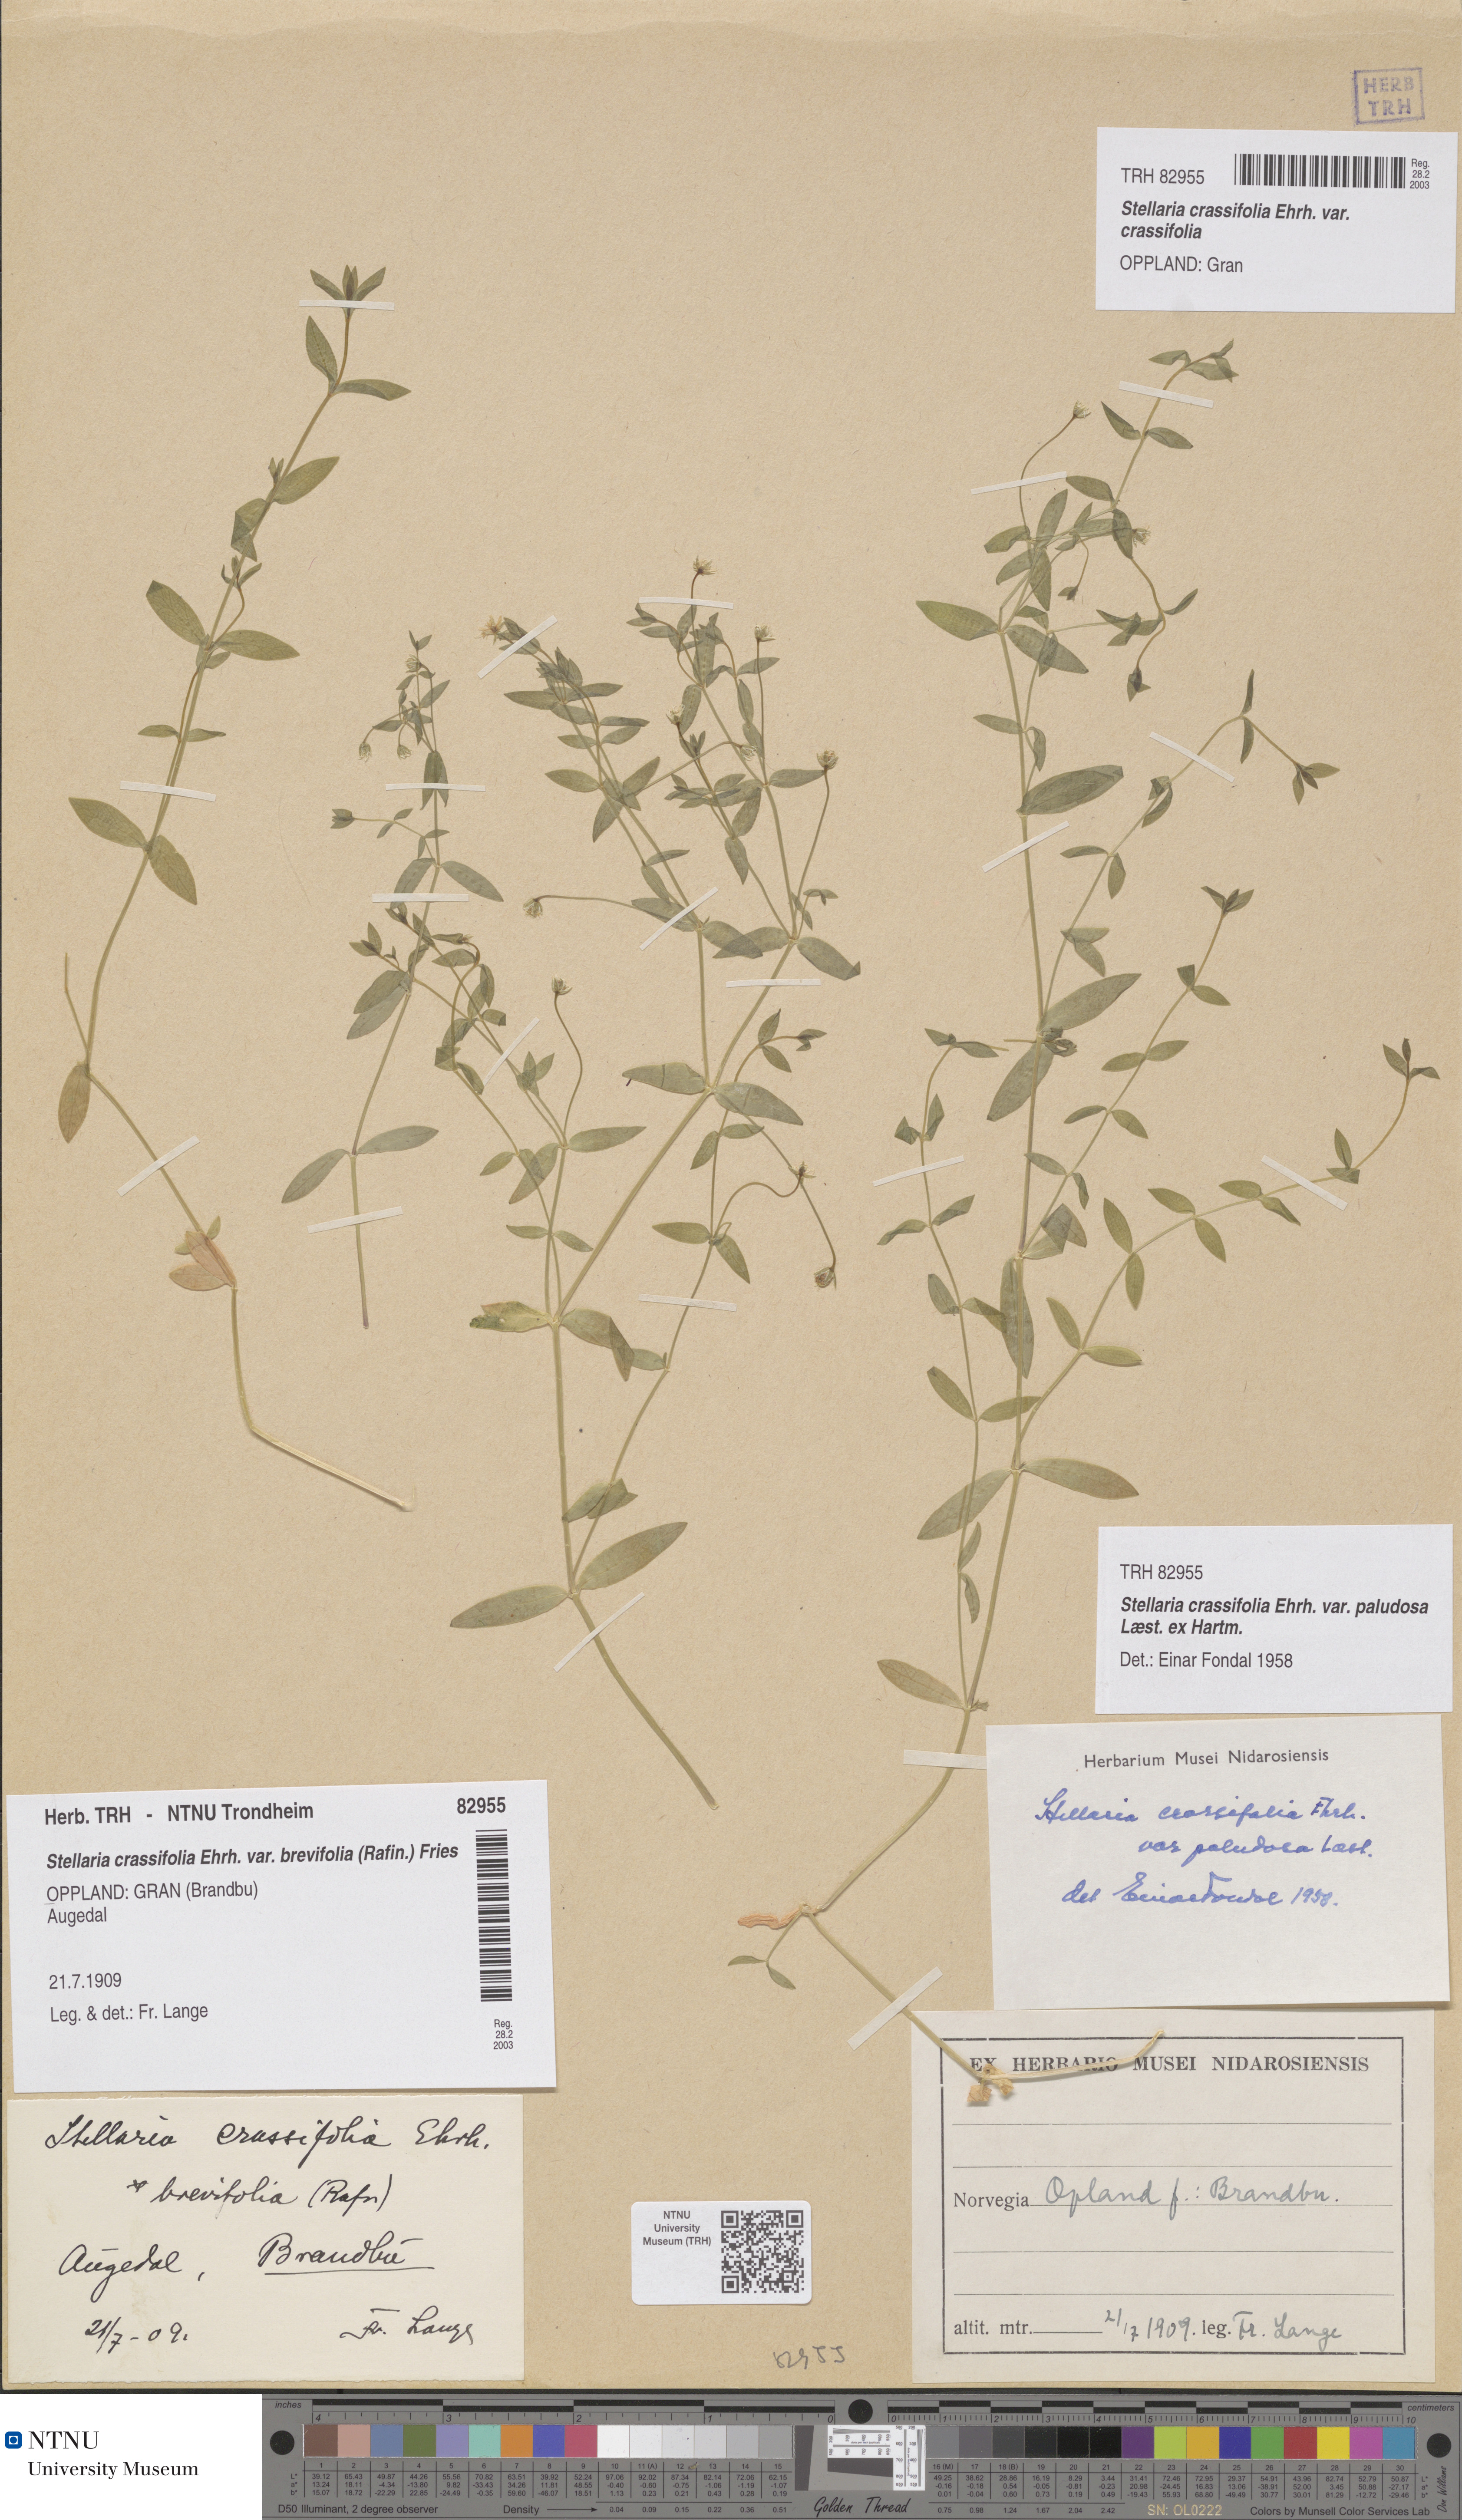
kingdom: Plantae
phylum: Tracheophyta
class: Magnoliopsida
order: Caryophyllales
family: Caryophyllaceae
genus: Stellaria
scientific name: Stellaria crassifolia
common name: Fleshy starwort
